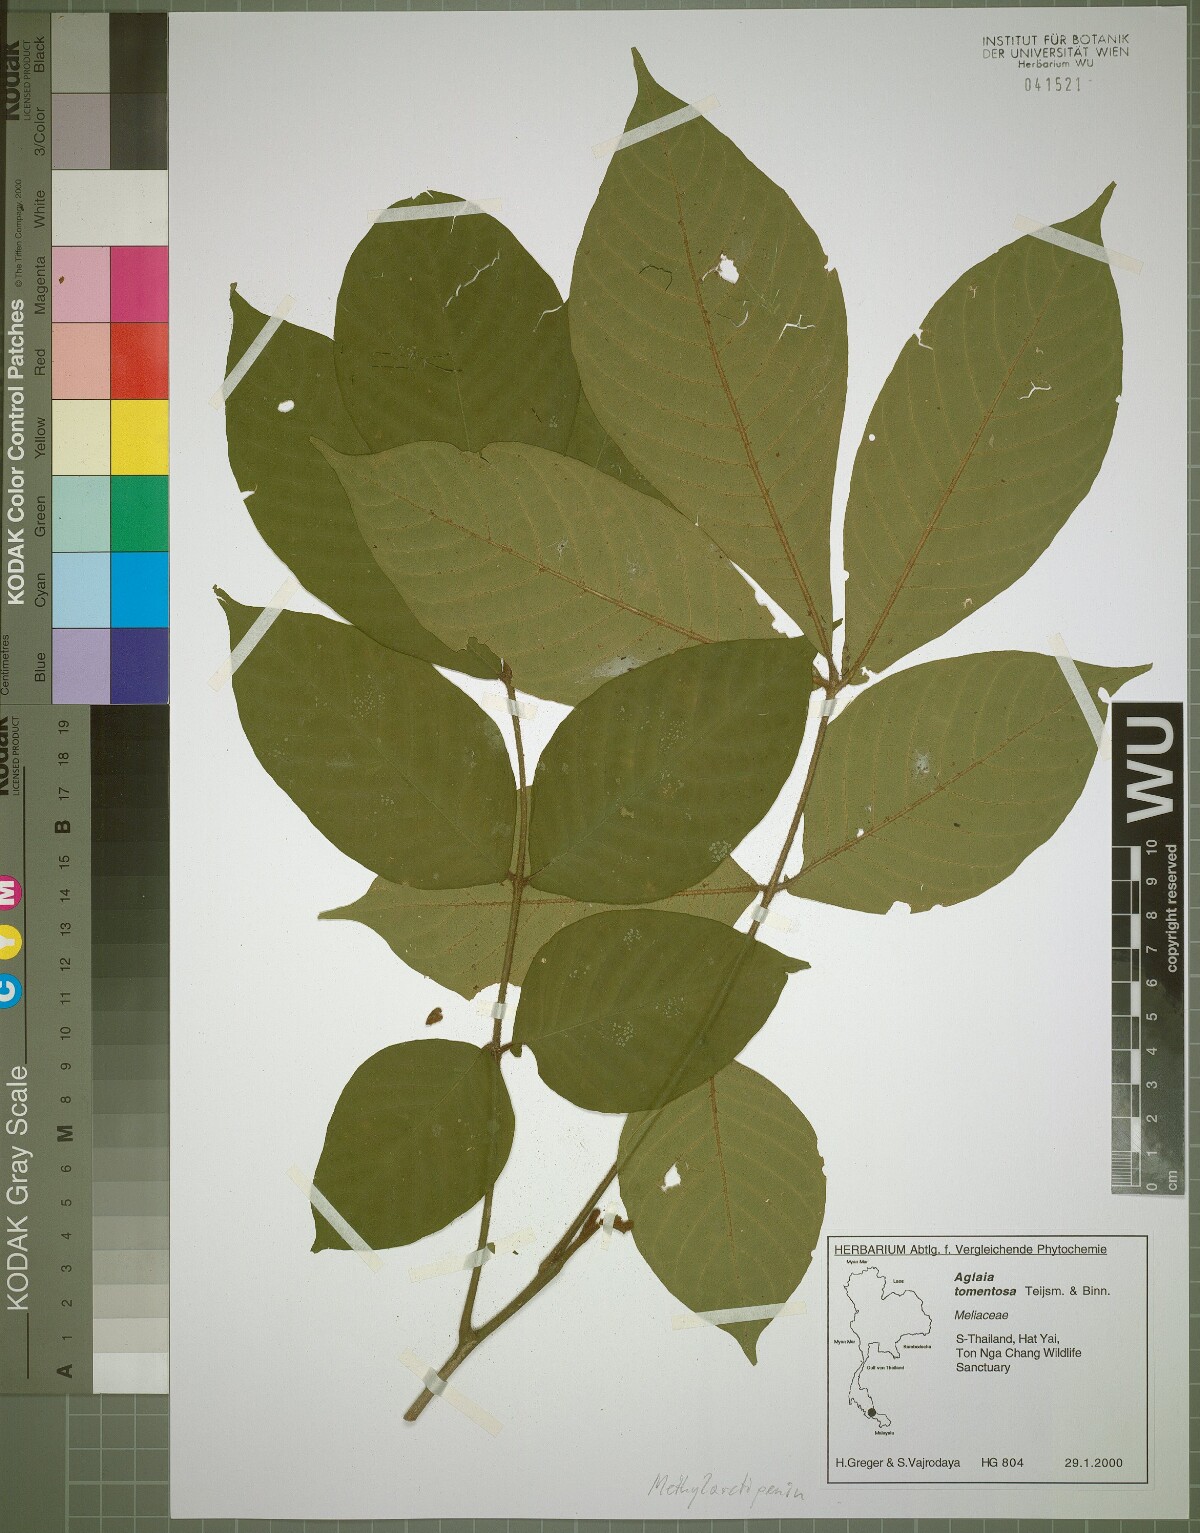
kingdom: Plantae
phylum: Tracheophyta
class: Magnoliopsida
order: Sapindales
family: Meliaceae
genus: Aglaia
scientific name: Aglaia tomentosa
